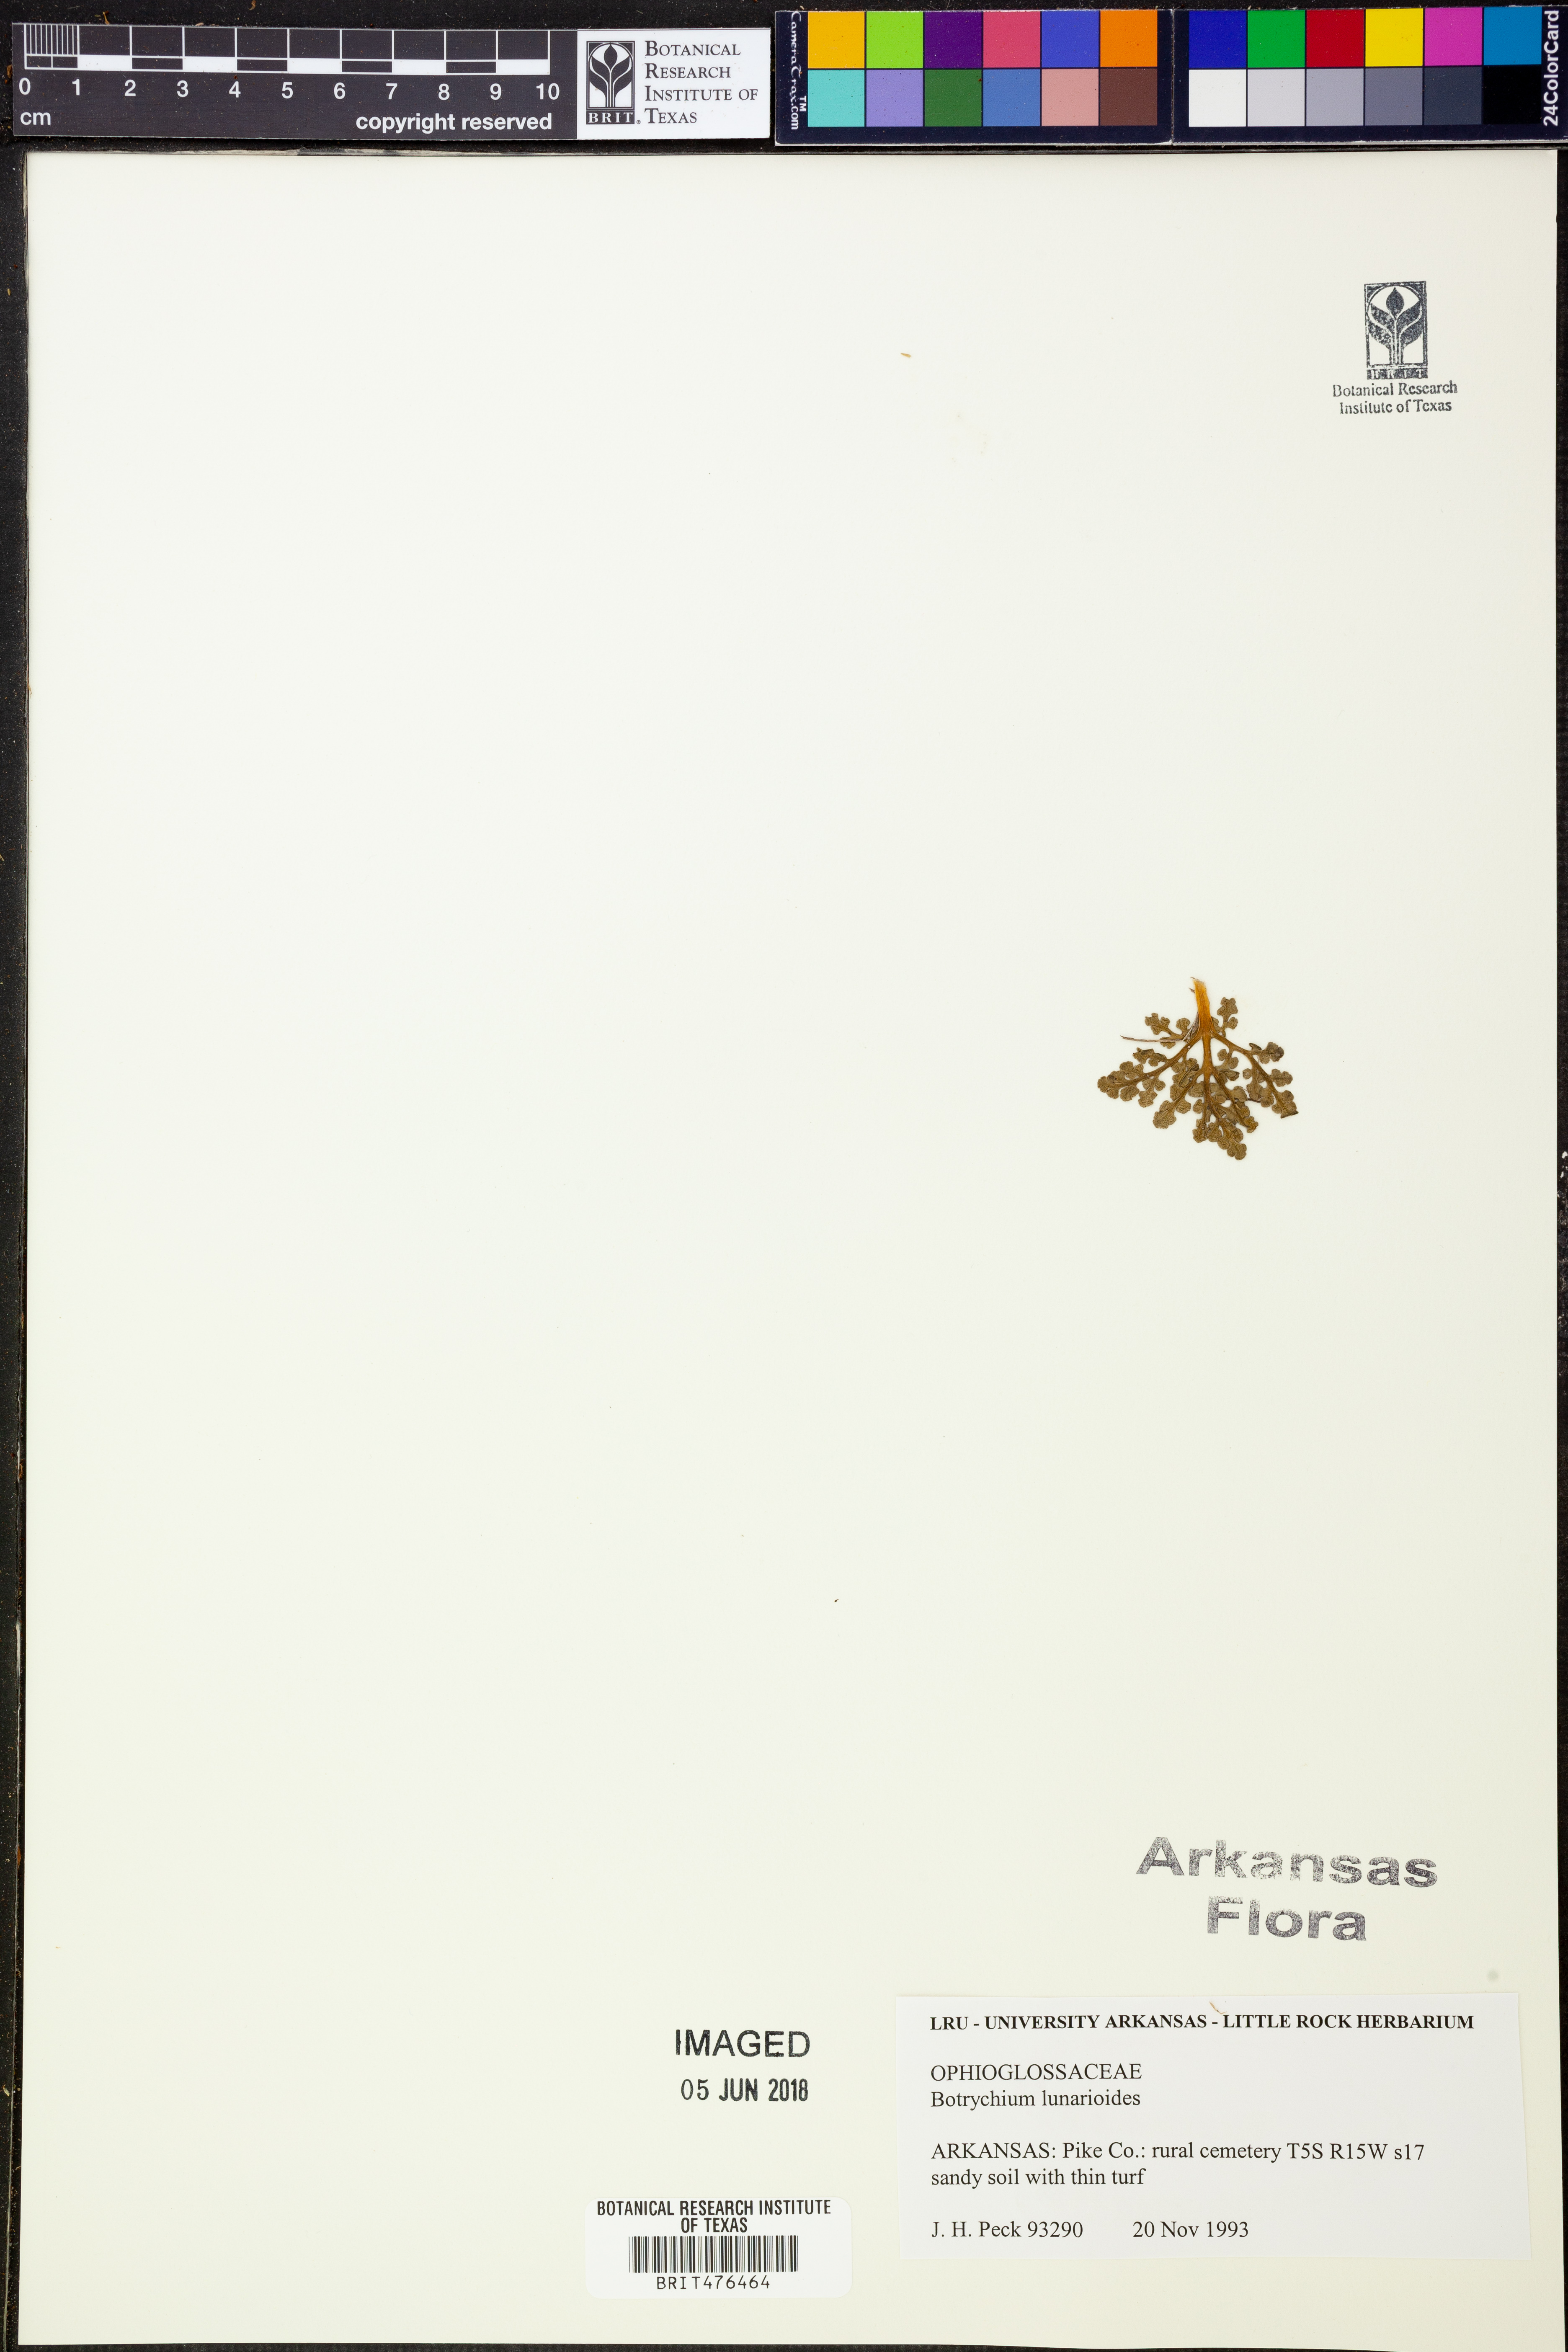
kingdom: Plantae
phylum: Tracheophyta
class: Polypodiopsida
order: Ophioglossales
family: Ophioglossaceae
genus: Sceptridium
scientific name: Sceptridium lunarioides
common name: Prostrate grapefern
